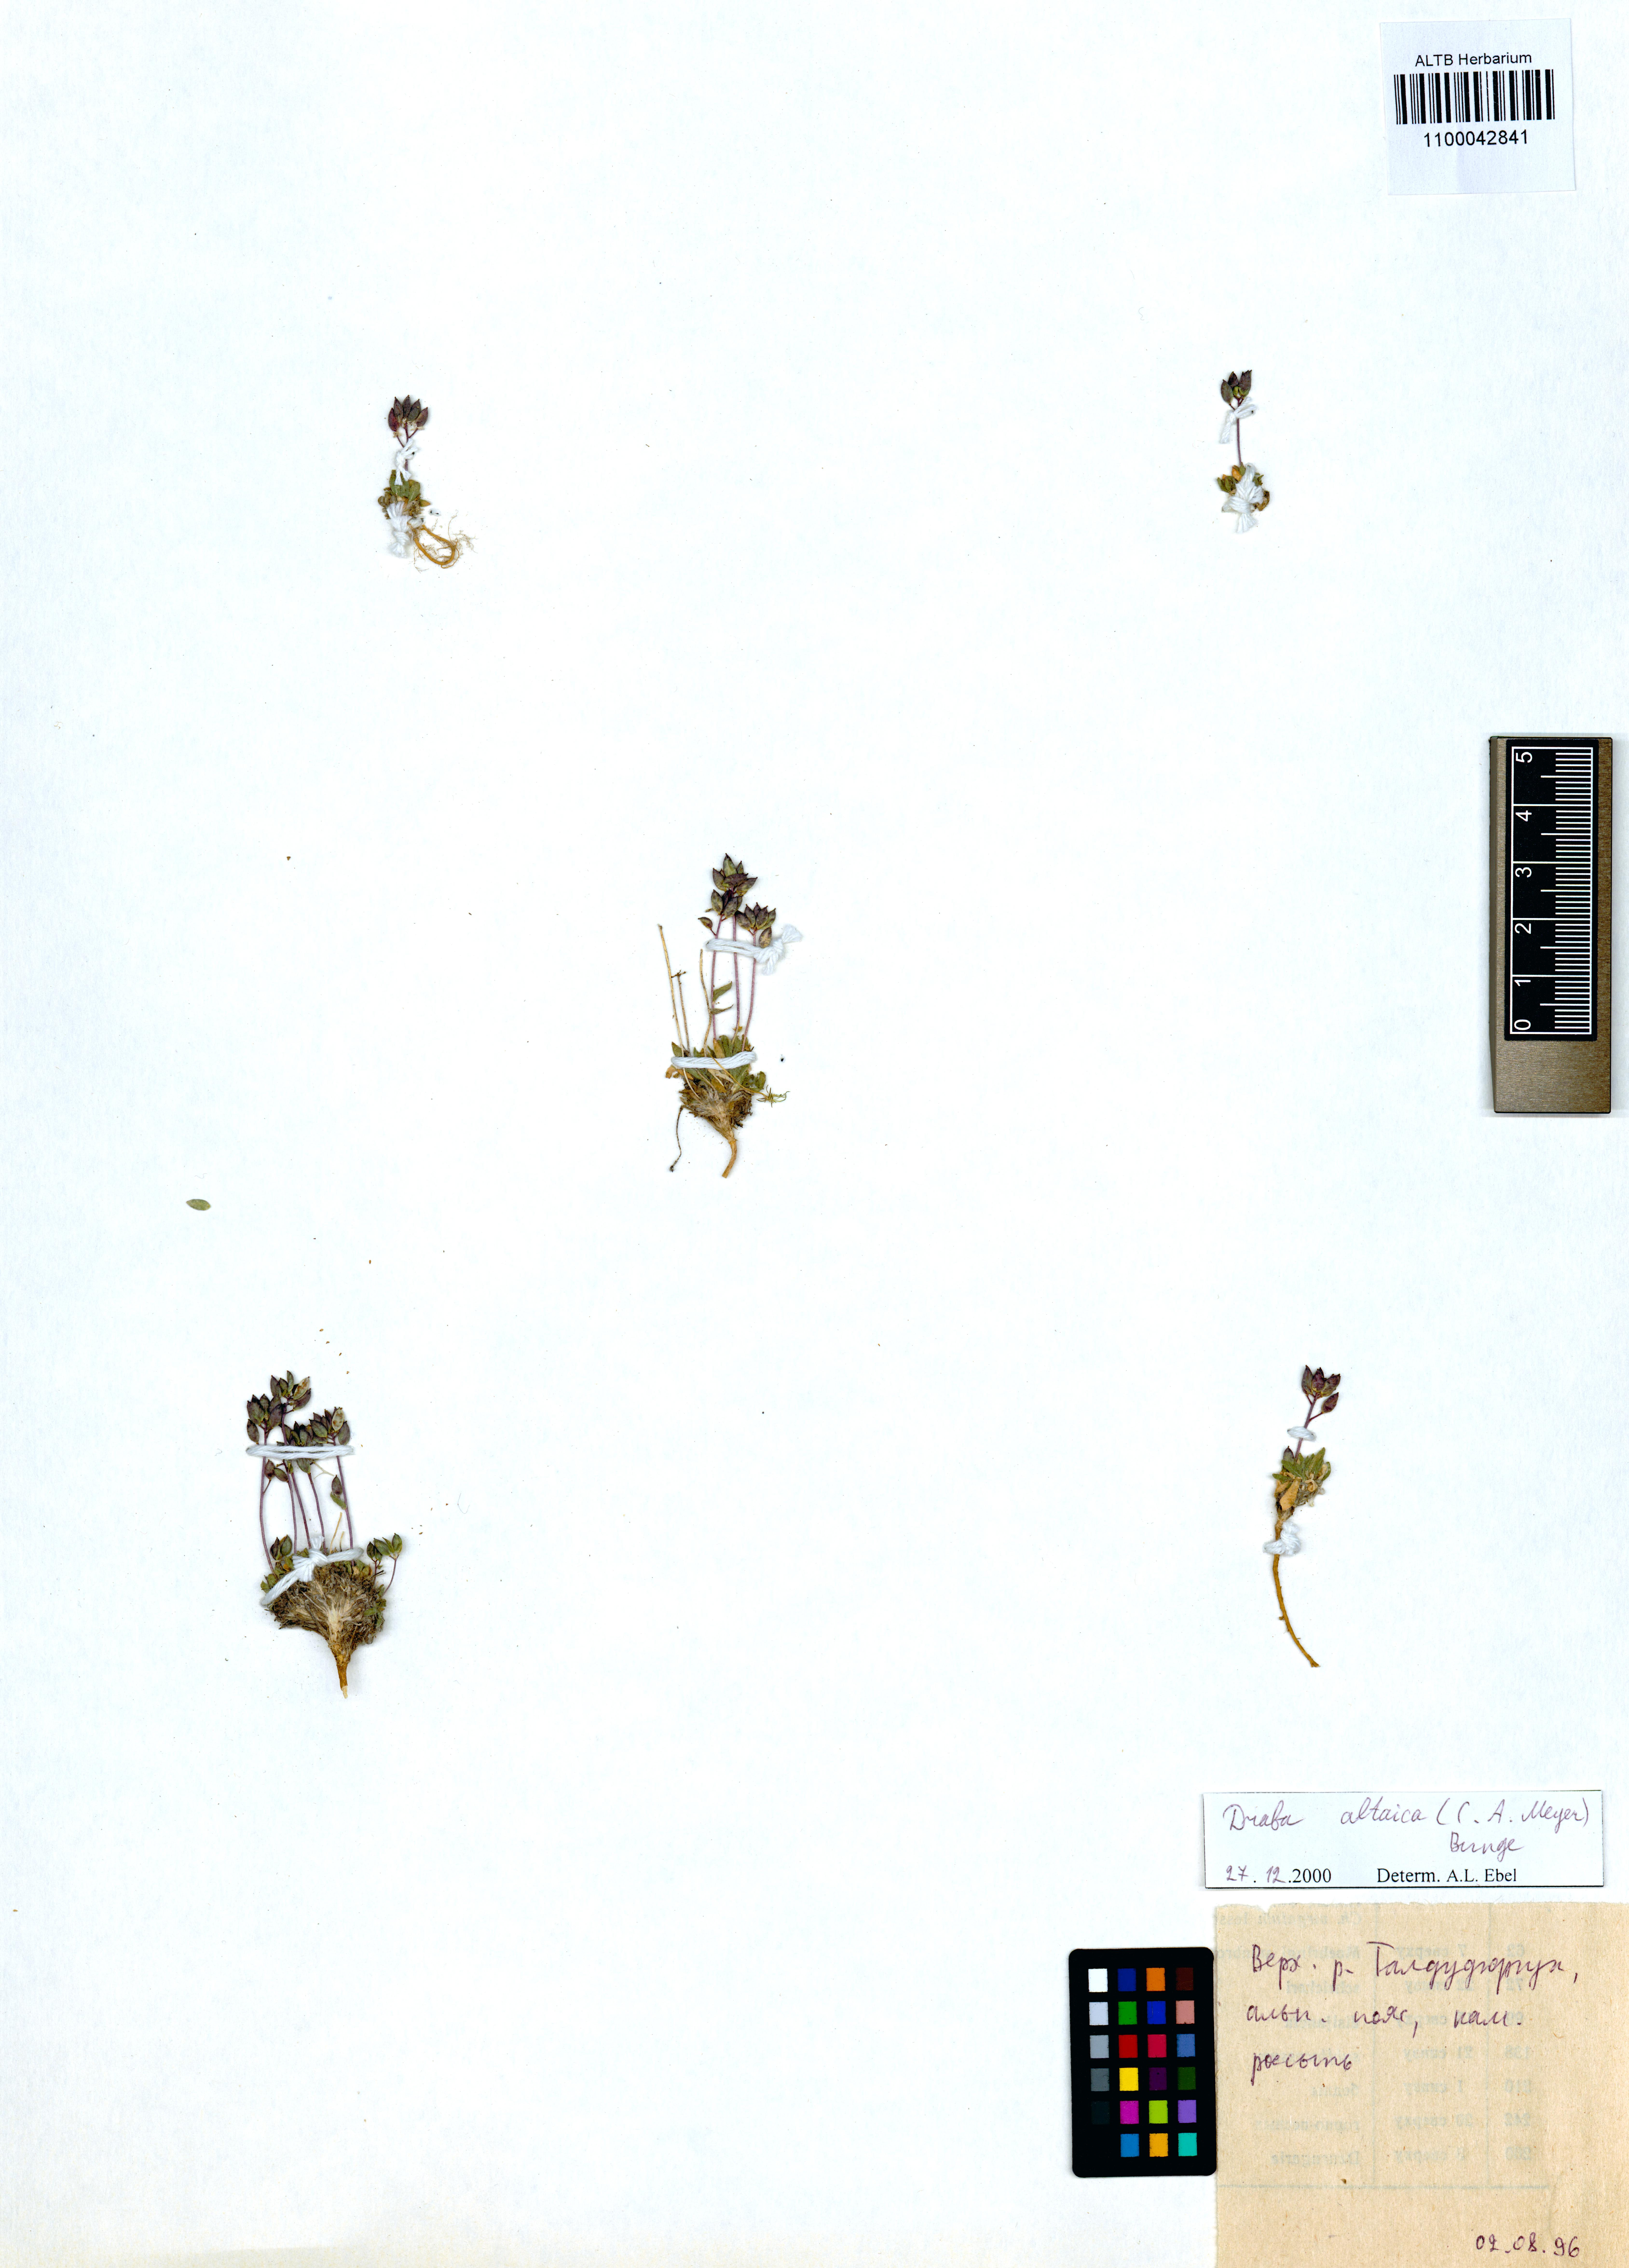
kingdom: Plantae
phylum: Tracheophyta
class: Magnoliopsida
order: Brassicales
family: Brassicaceae
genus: Draba
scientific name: Draba altaica
